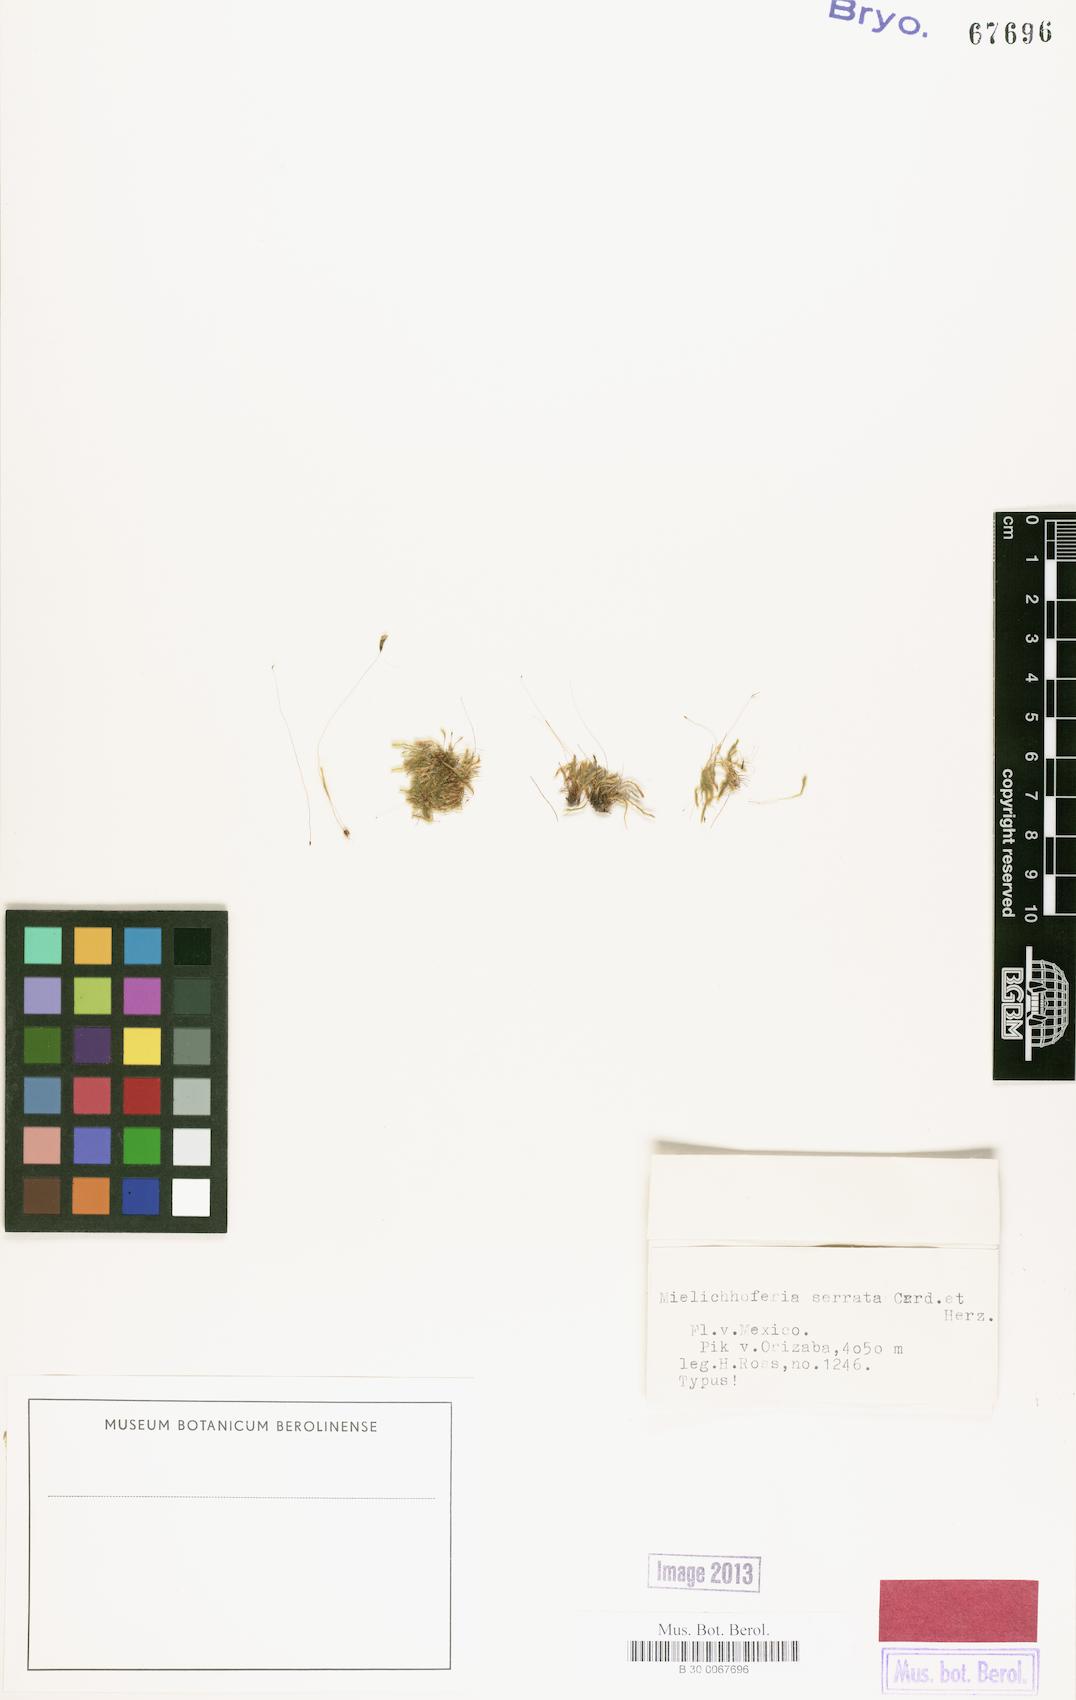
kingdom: Plantae
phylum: Bryophyta
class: Bryopsida
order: Bryales
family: Mniaceae
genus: Schizymenium
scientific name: Schizymenium serratum
